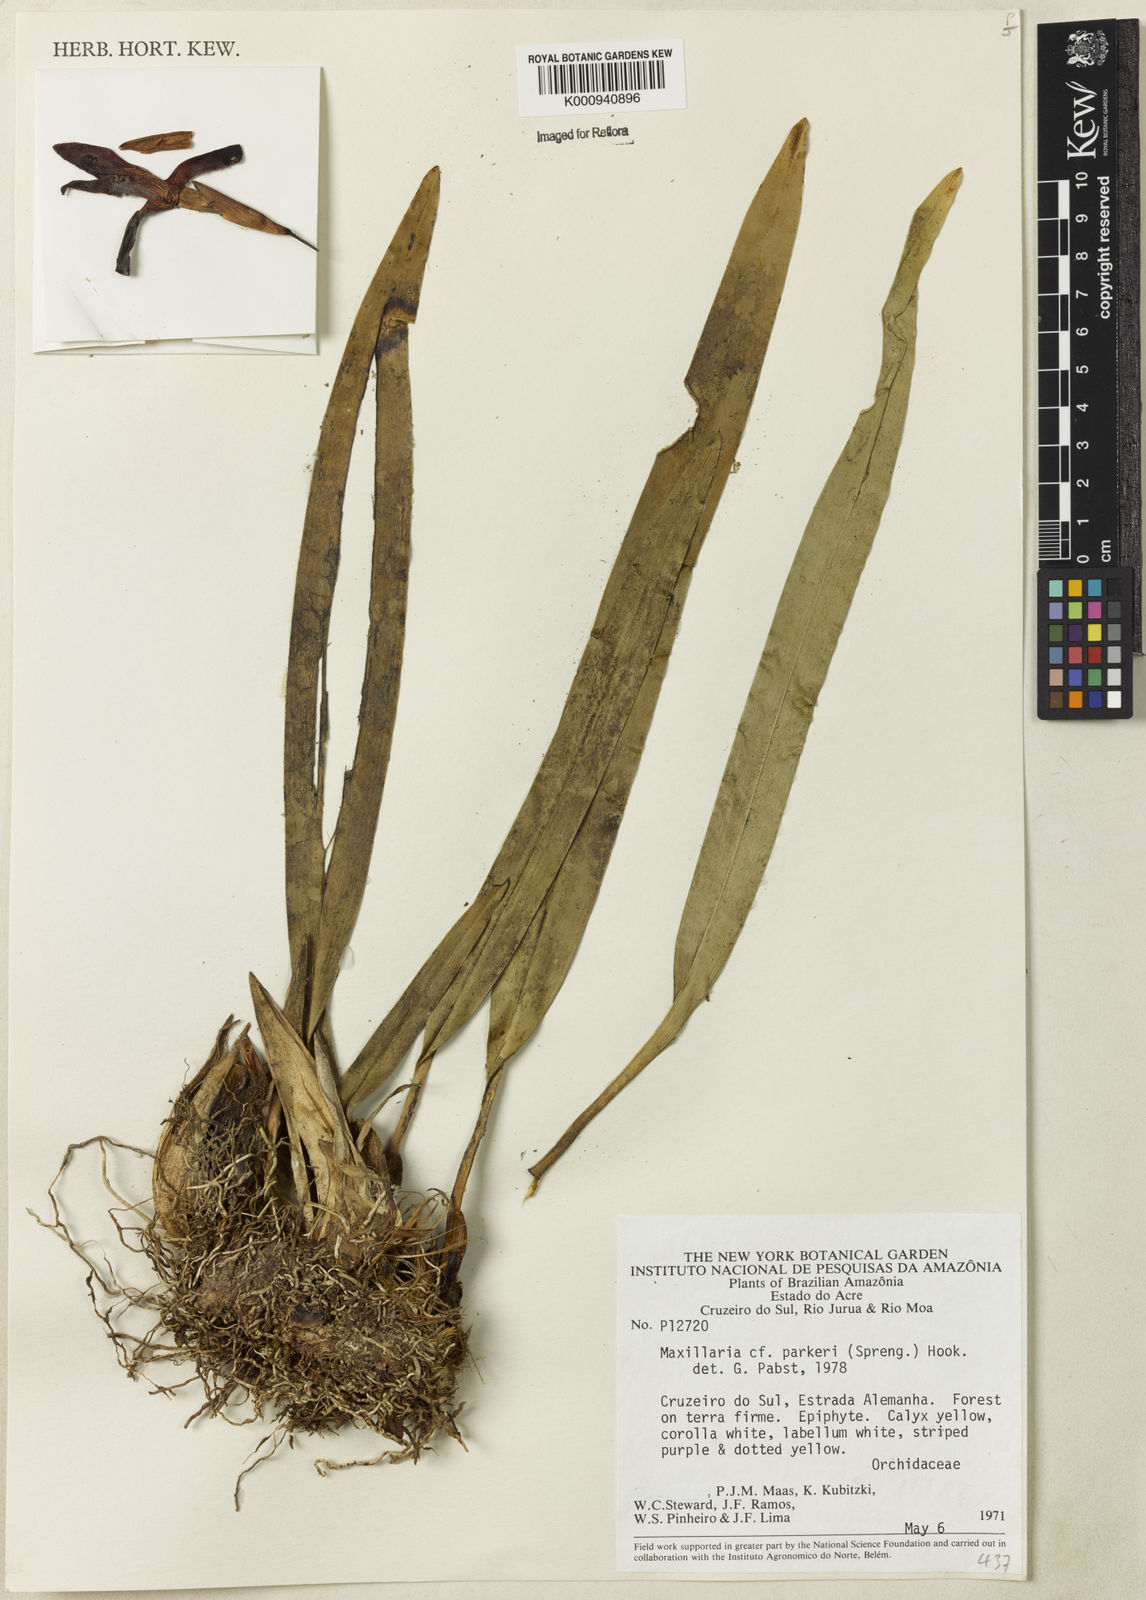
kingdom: Plantae
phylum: Tracheophyta
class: Liliopsida
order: Asparagales
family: Orchidaceae
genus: Maxillaria
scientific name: Maxillaria parkeri
